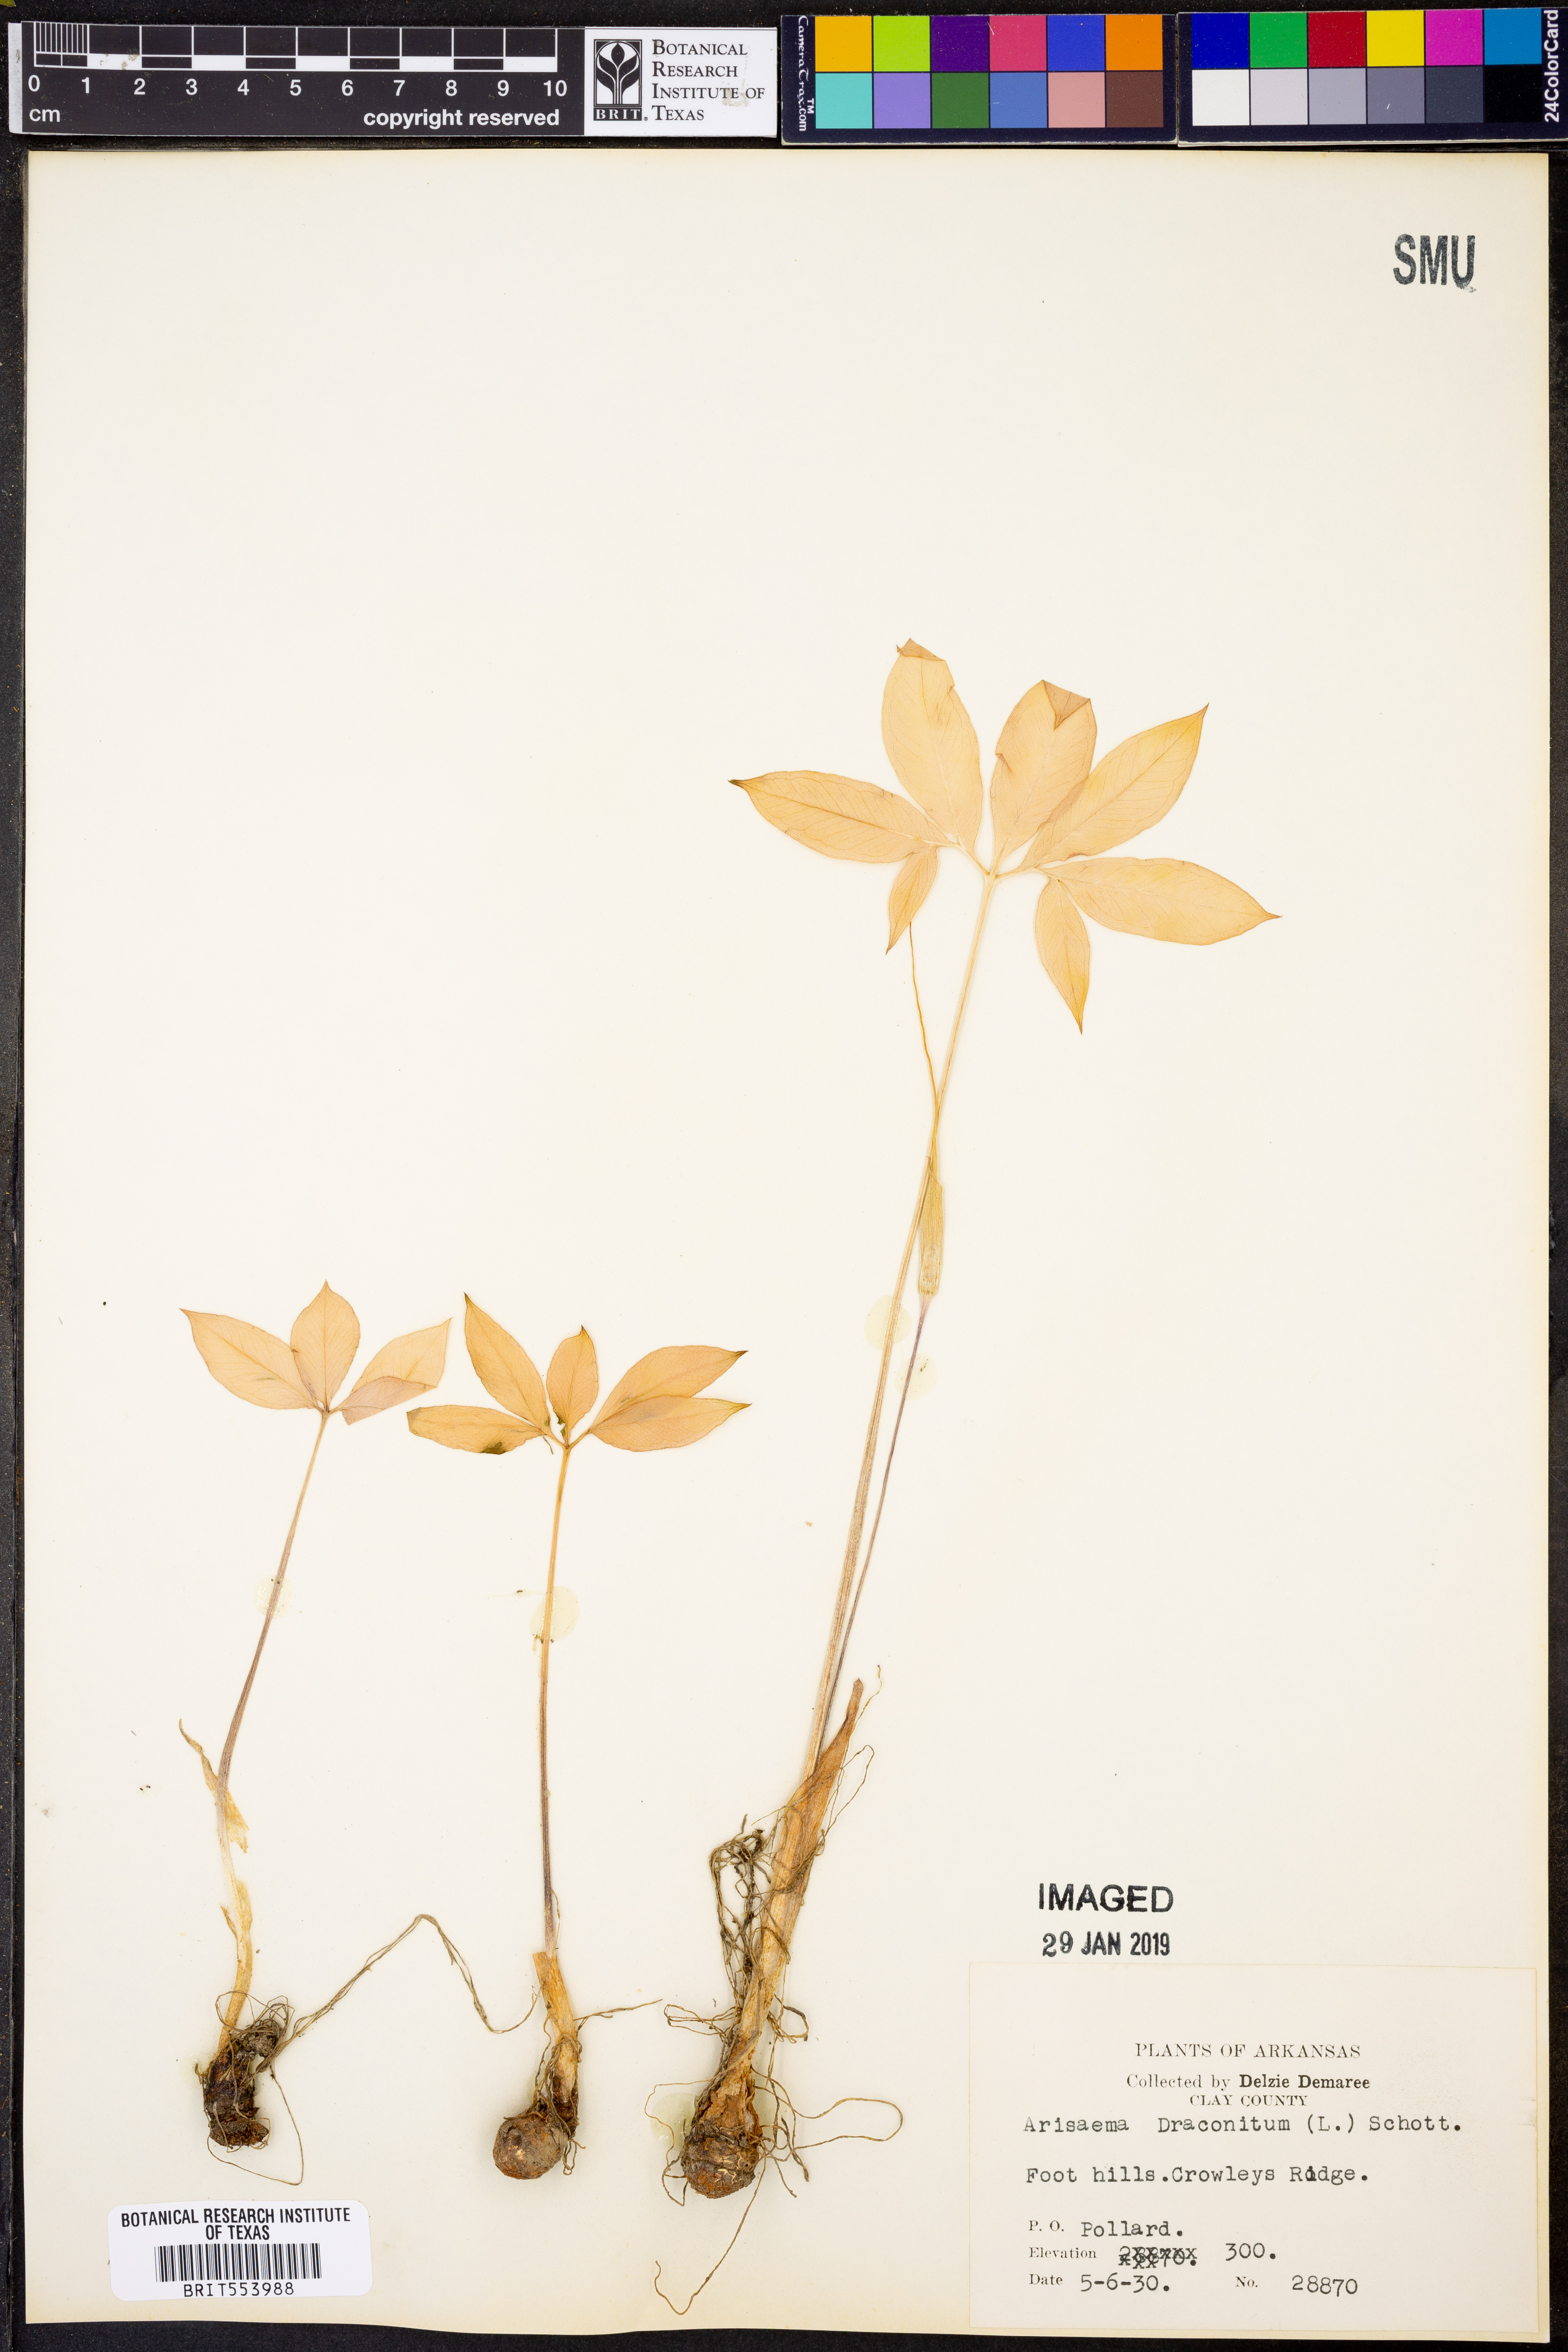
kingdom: Plantae
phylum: Tracheophyta
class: Liliopsida
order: Alismatales
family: Araceae
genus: Arisaema
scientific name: Arisaema dracontium
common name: Dragon-arum
